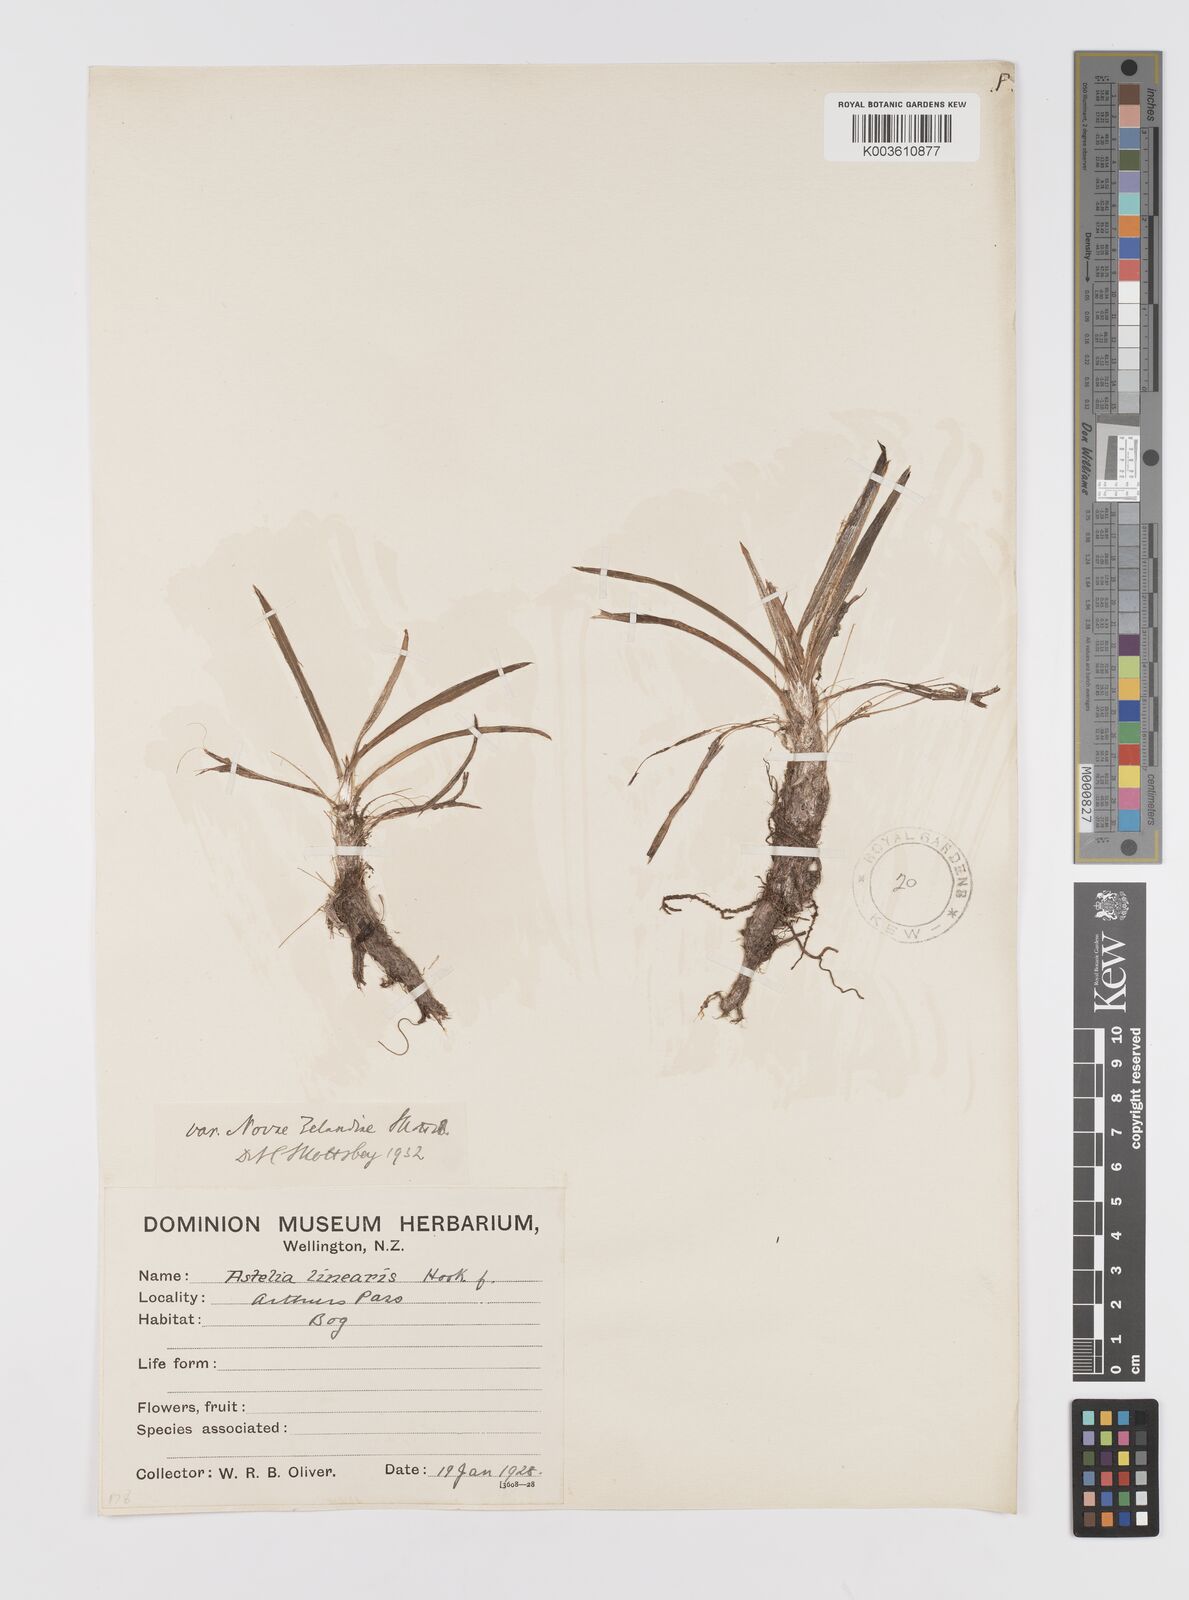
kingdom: Plantae
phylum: Tracheophyta
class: Liliopsida
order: Asparagales
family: Asteliaceae
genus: Astelia
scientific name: Astelia linearis
